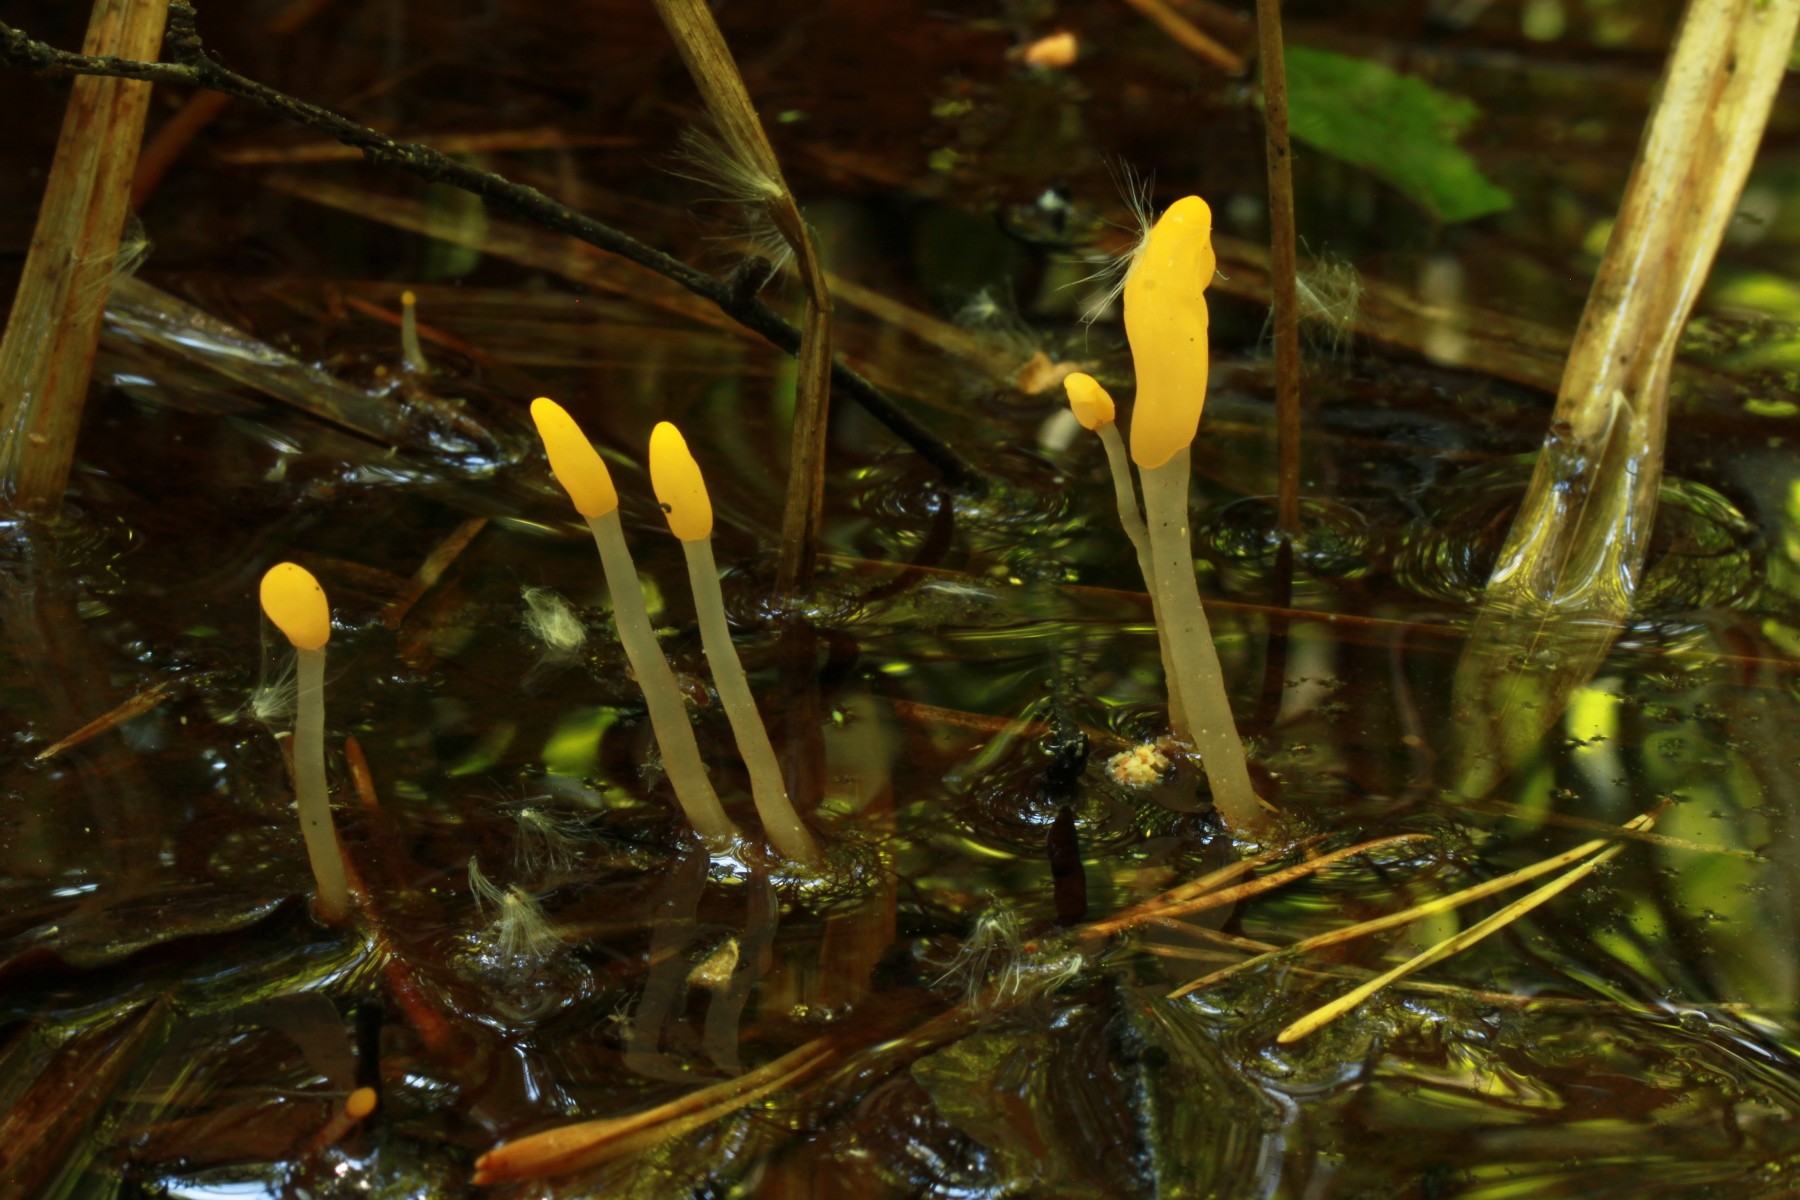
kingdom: Fungi
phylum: Ascomycota
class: Leotiomycetes
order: Helotiales
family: Cenangiaceae
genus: Mitrula
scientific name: Mitrula paludosa
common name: gul nøkketunge
